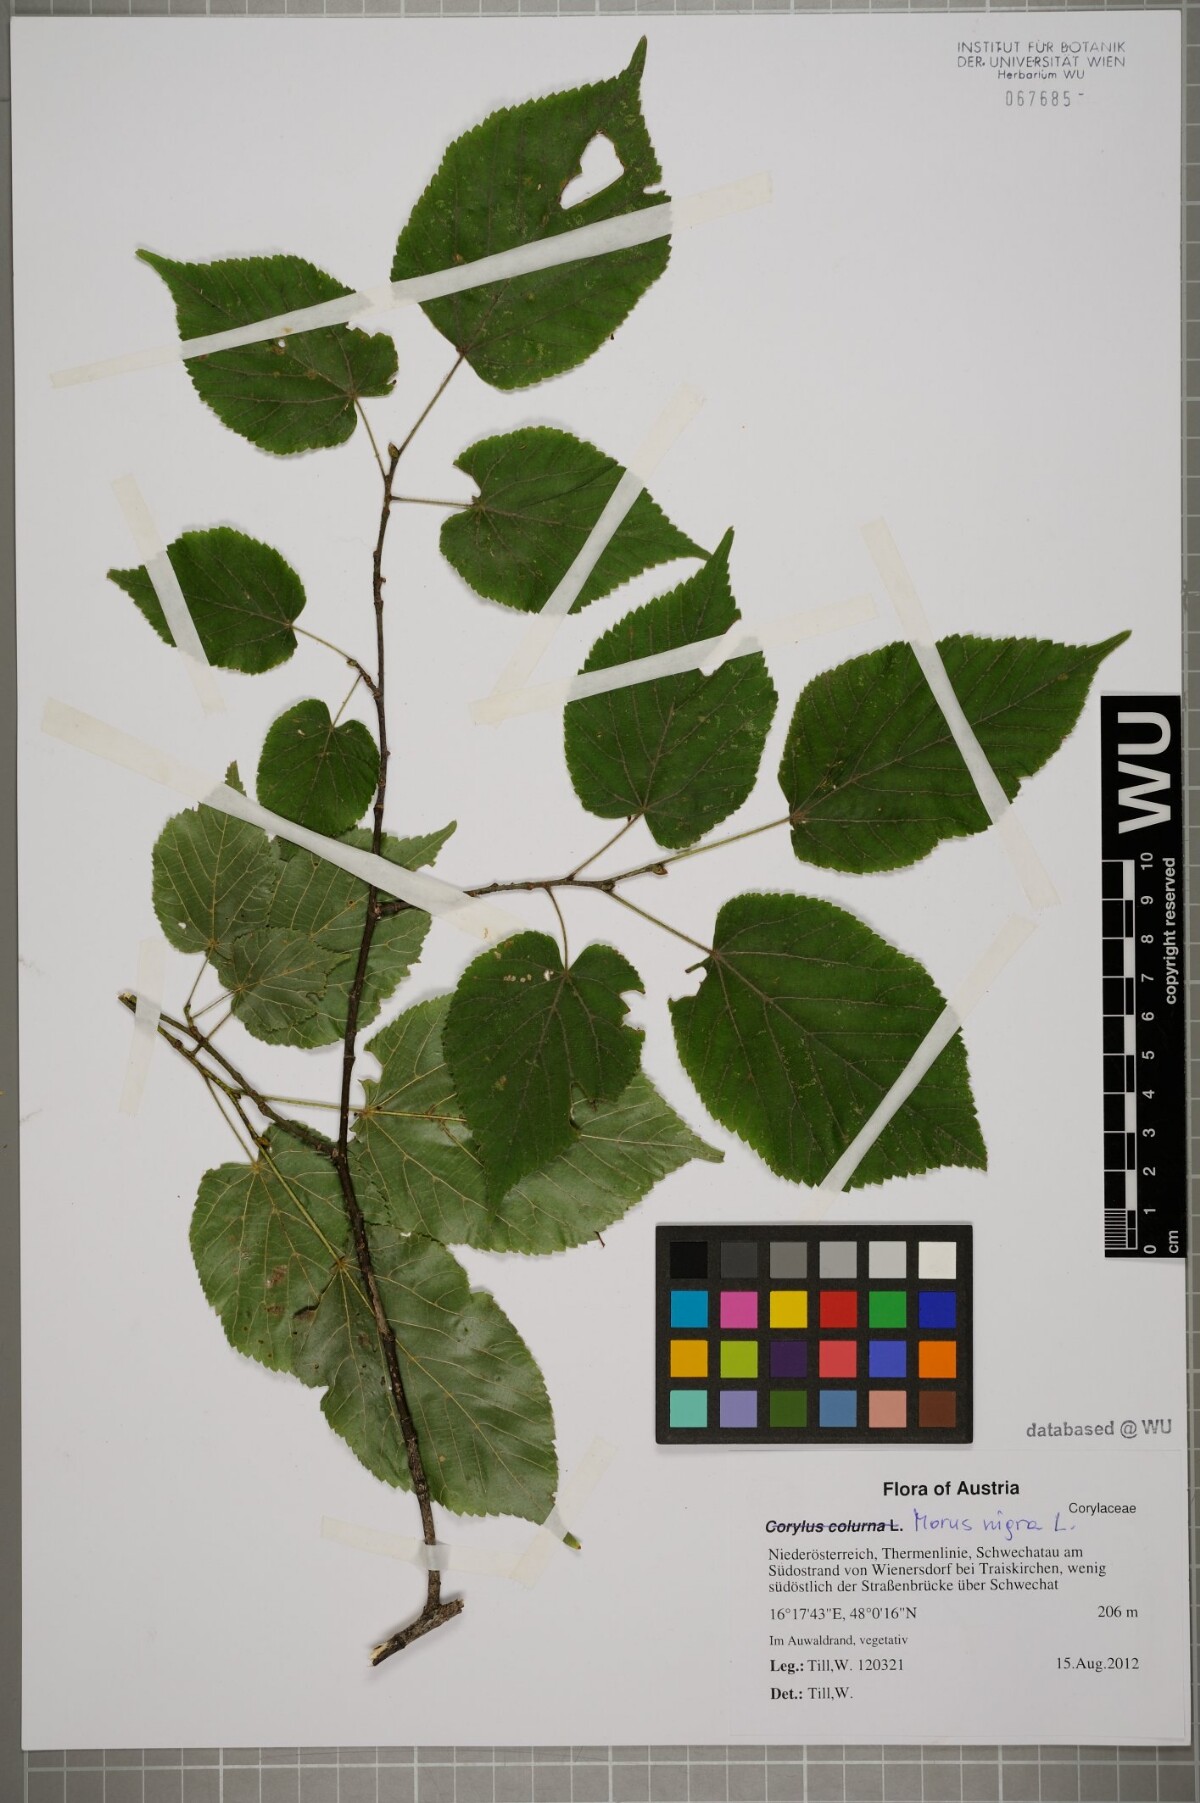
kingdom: Plantae
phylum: Tracheophyta
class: Magnoliopsida
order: Rosales
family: Moraceae
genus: Morus
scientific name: Morus nigra
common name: Black mulberry
